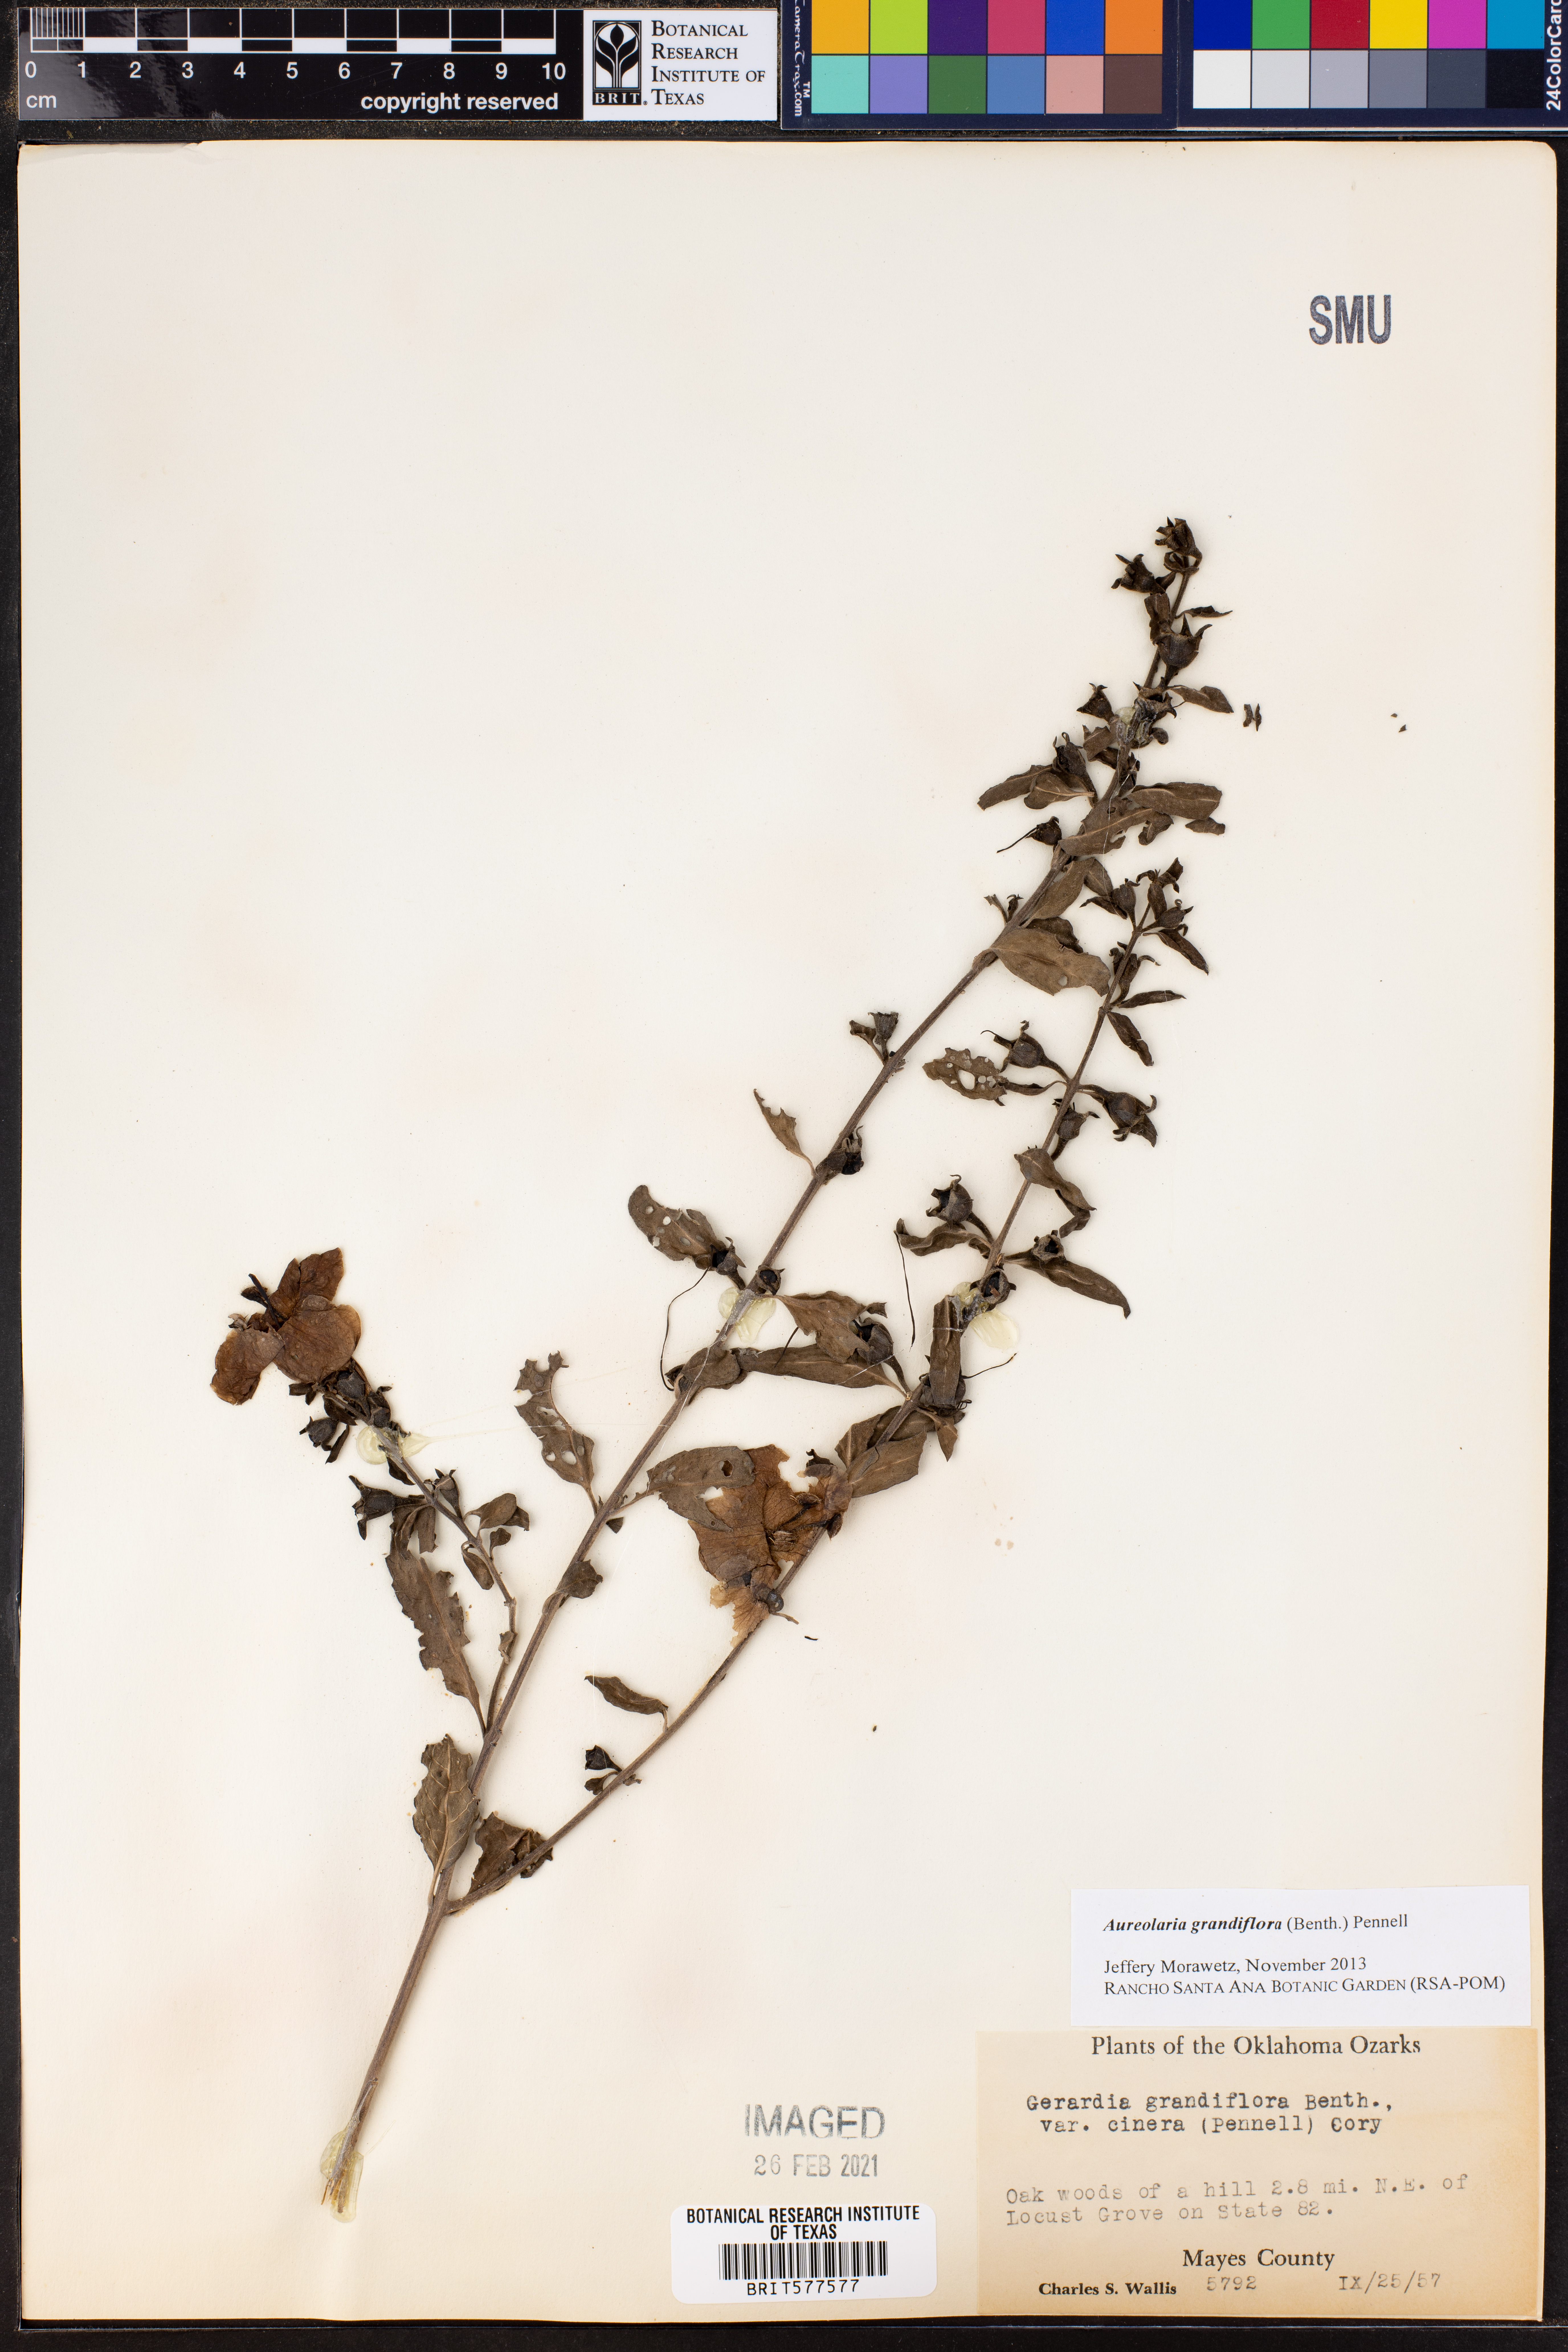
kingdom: Plantae
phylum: Tracheophyta
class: Magnoliopsida
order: Lamiales
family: Orobanchaceae
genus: Aureolaria
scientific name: Aureolaria grandiflora
